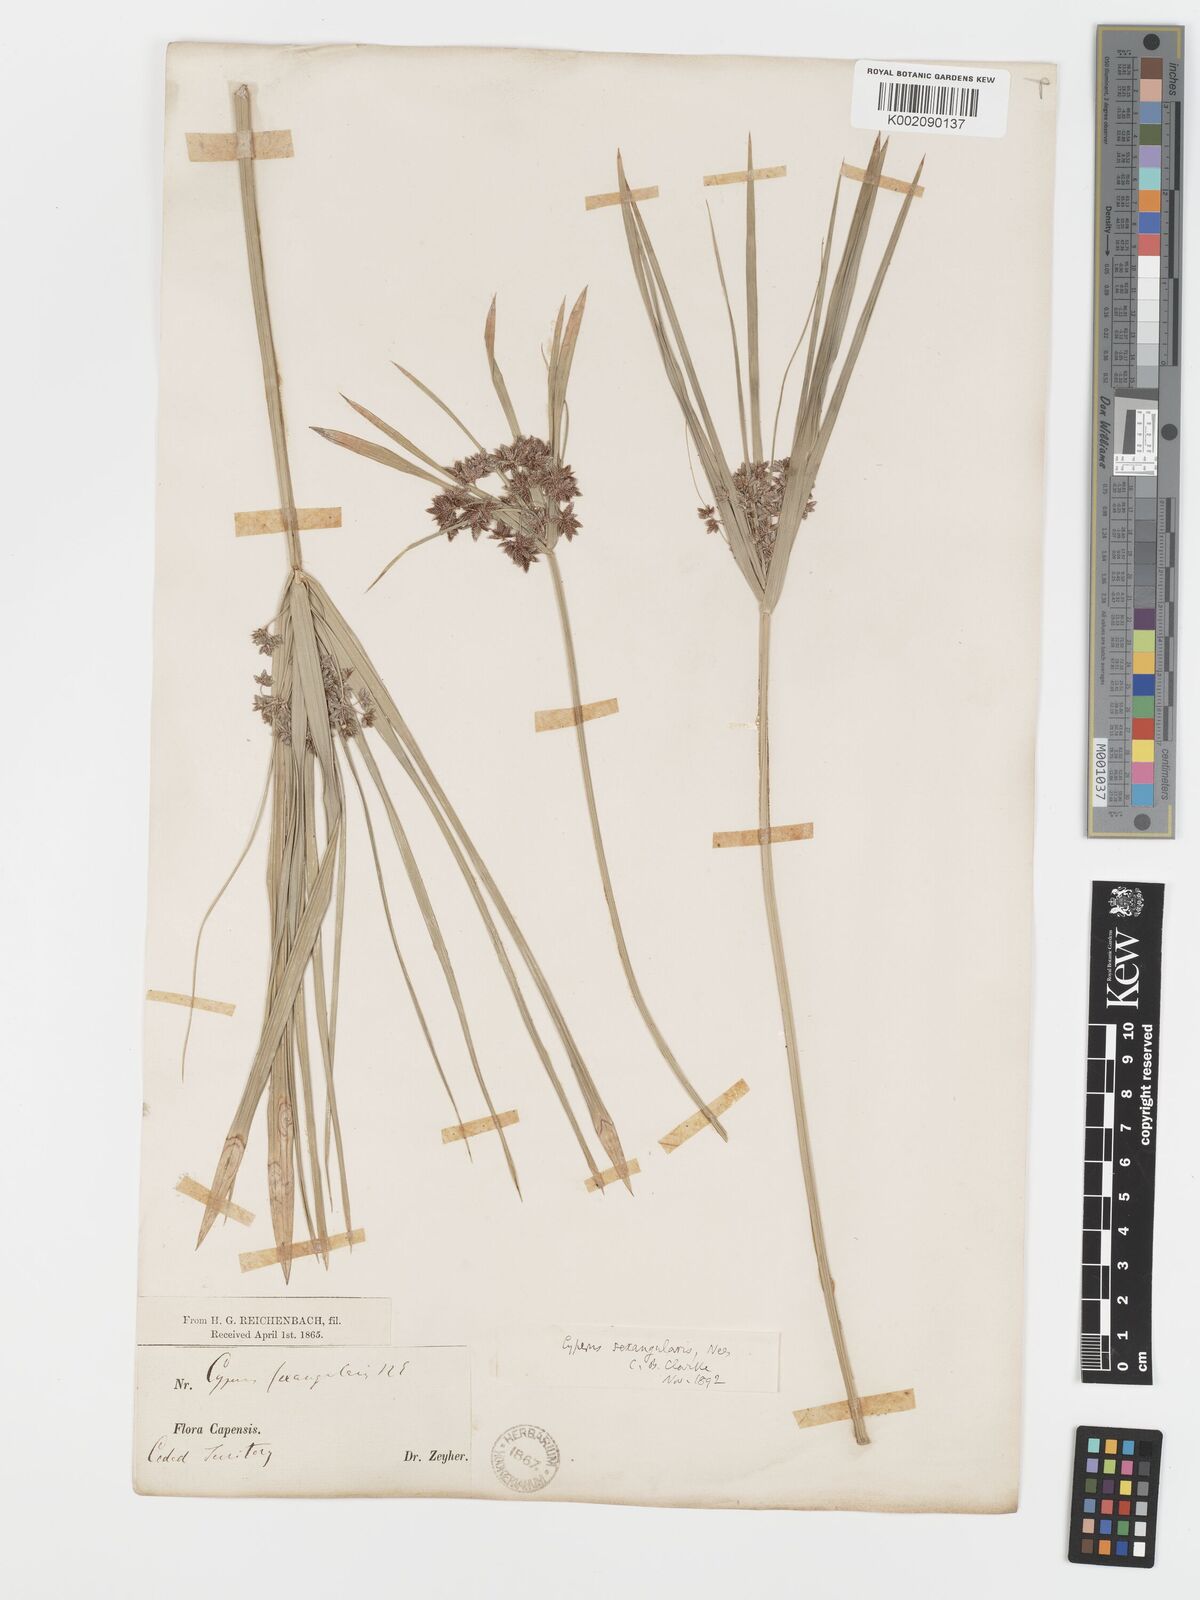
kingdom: Plantae
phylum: Tracheophyta
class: Liliopsida
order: Poales
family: Cyperaceae
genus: Cyperus
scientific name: Cyperus sexangularis
